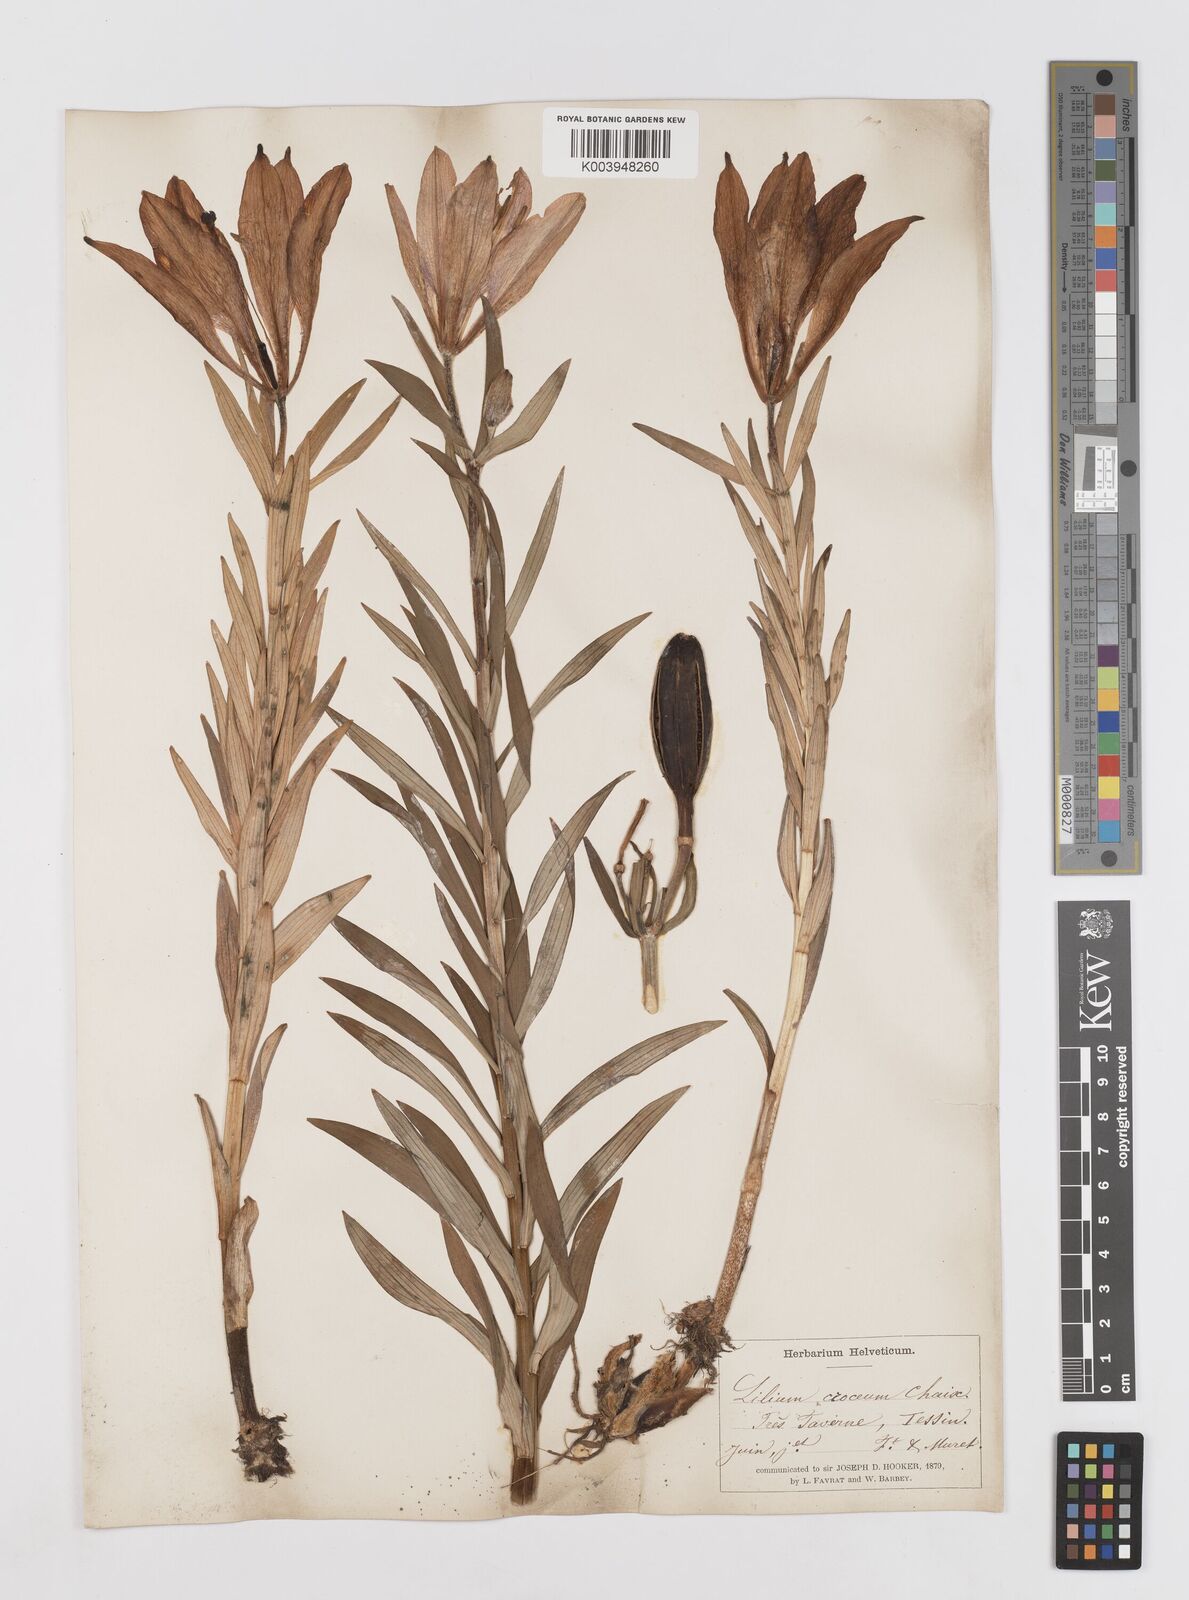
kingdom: Plantae
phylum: Tracheophyta
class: Liliopsida
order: Liliales
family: Liliaceae
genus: Lilium
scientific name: Lilium bulbiferum
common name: Orange lily
